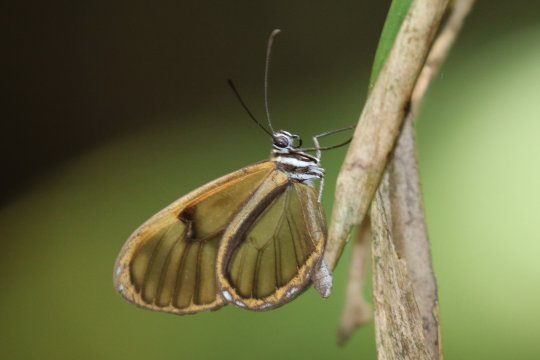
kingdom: Animalia
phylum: Arthropoda
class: Insecta
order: Lepidoptera
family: Nymphalidae
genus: Pteronymia
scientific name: Pteronymia veia
